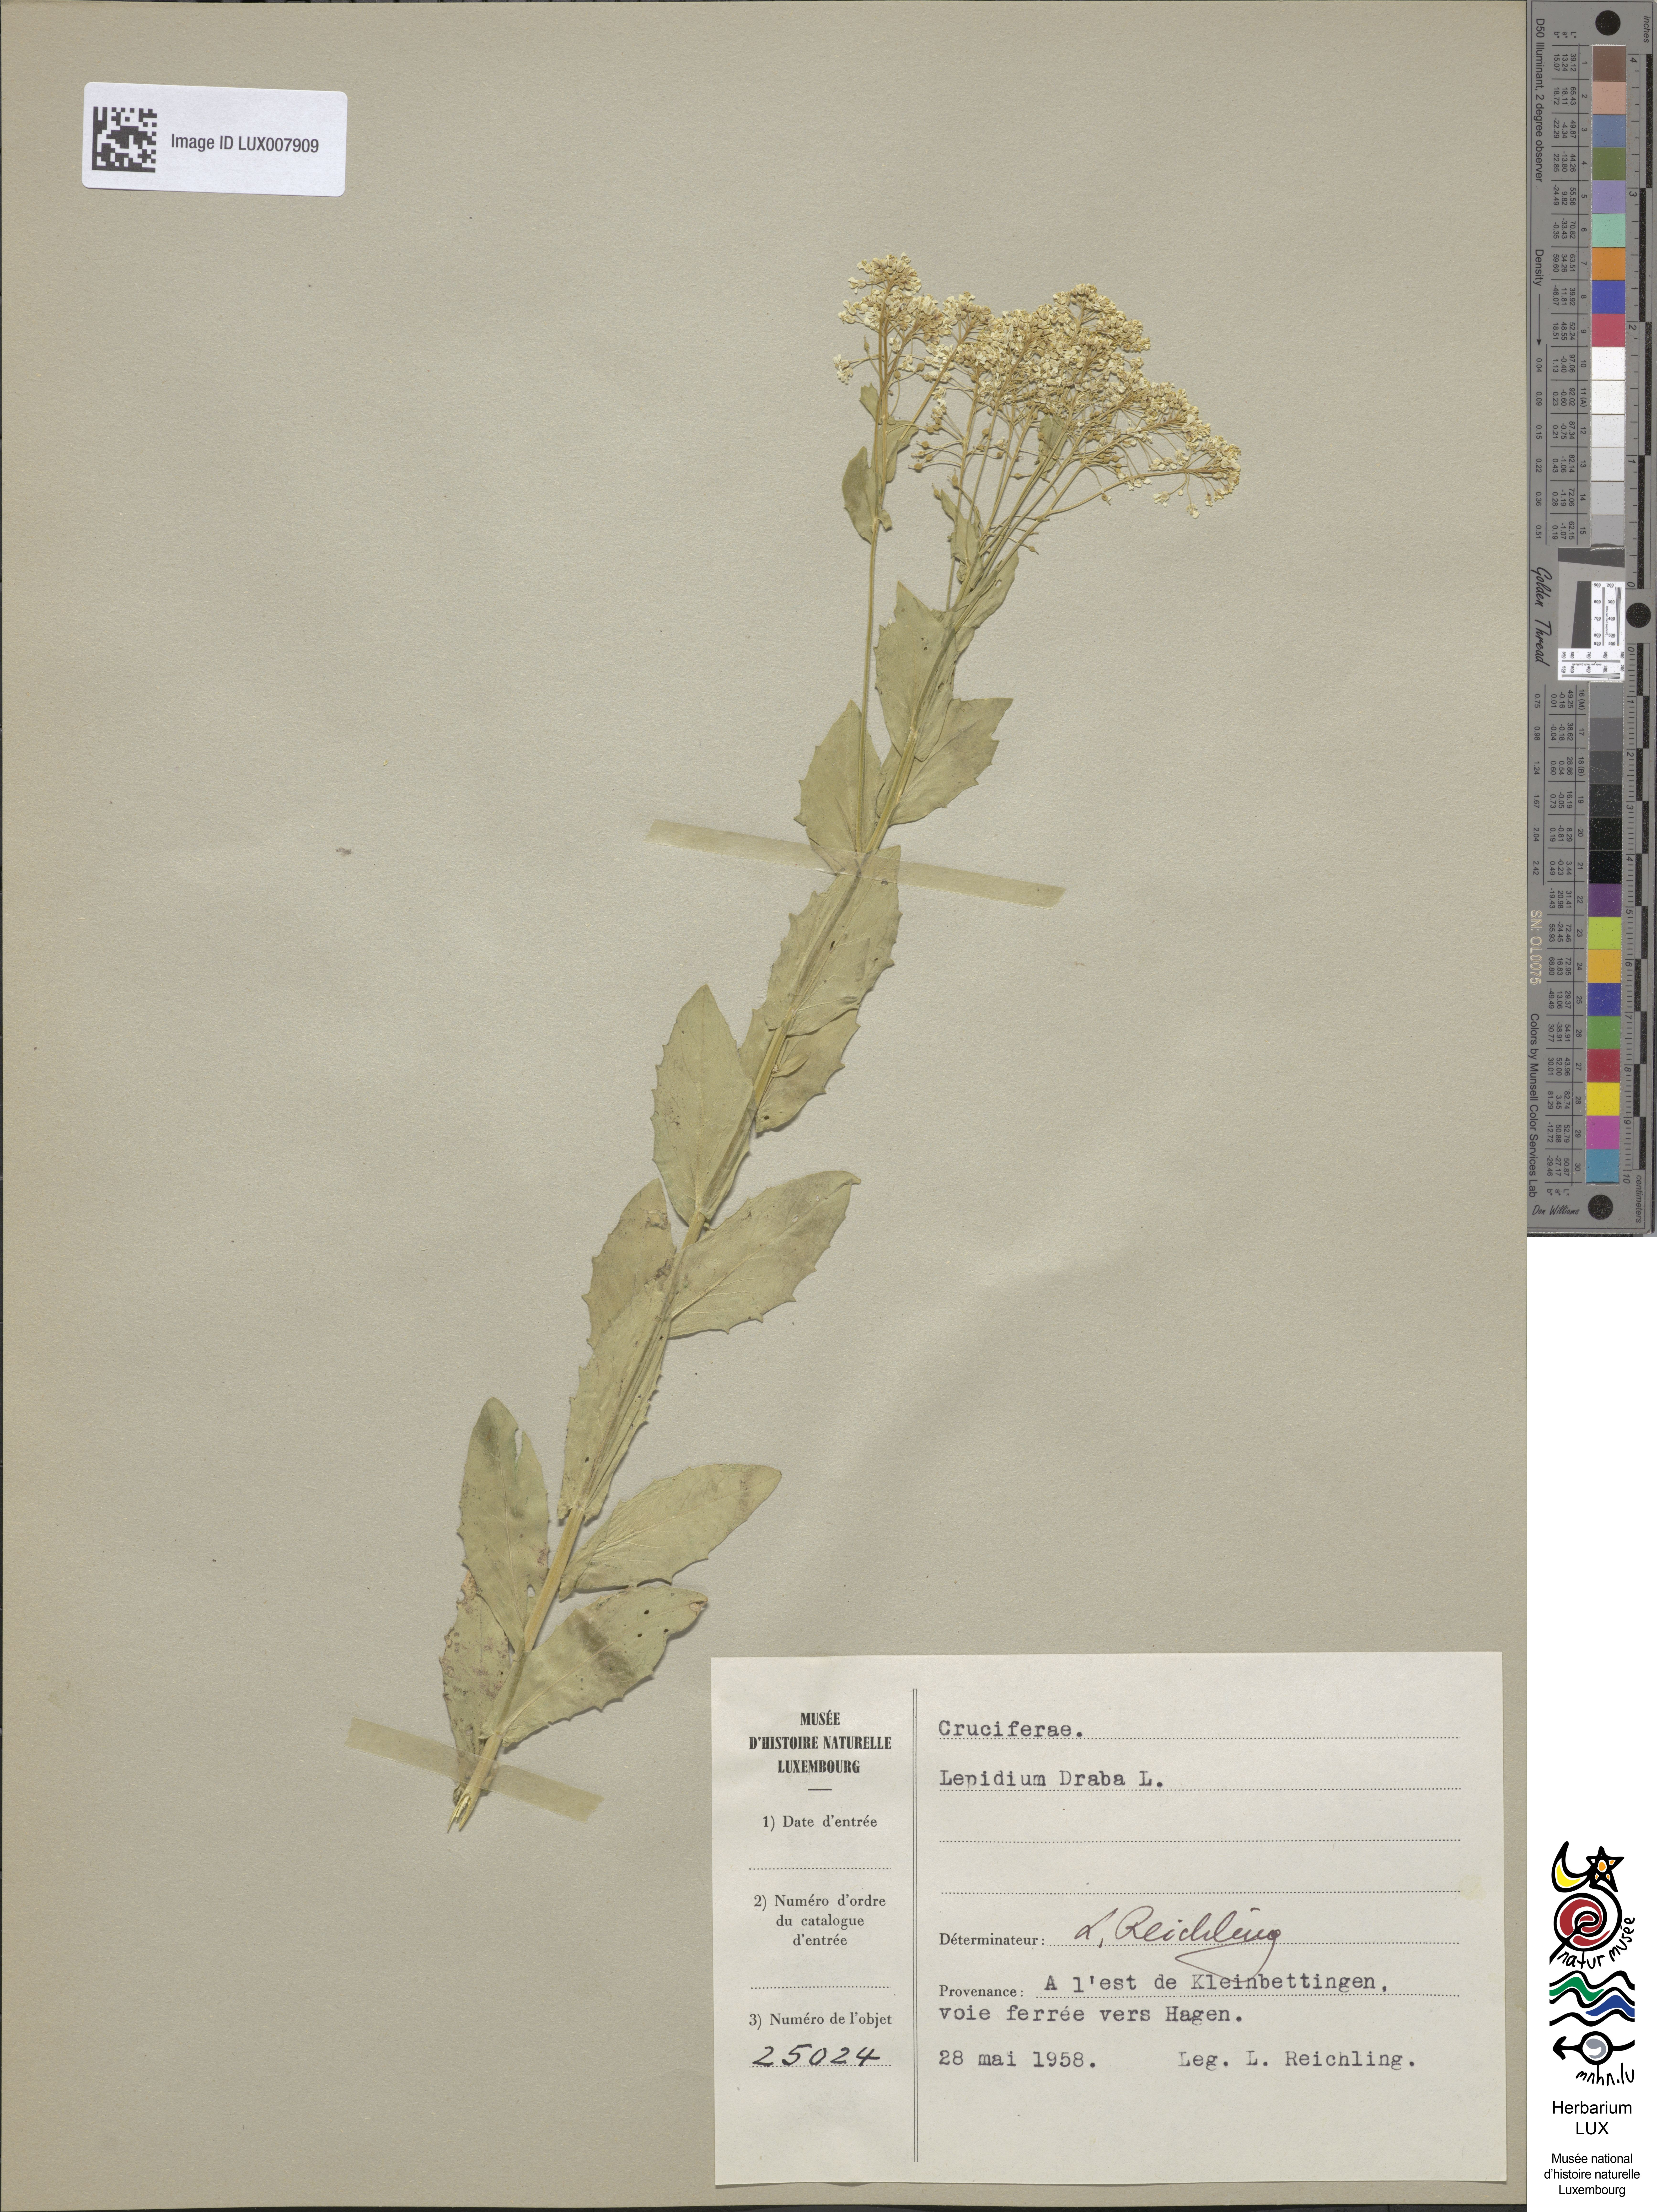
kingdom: Plantae
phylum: Tracheophyta
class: Magnoliopsida
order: Brassicales
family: Brassicaceae
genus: Lepidium
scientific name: Lepidium draba
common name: Hoary cress
